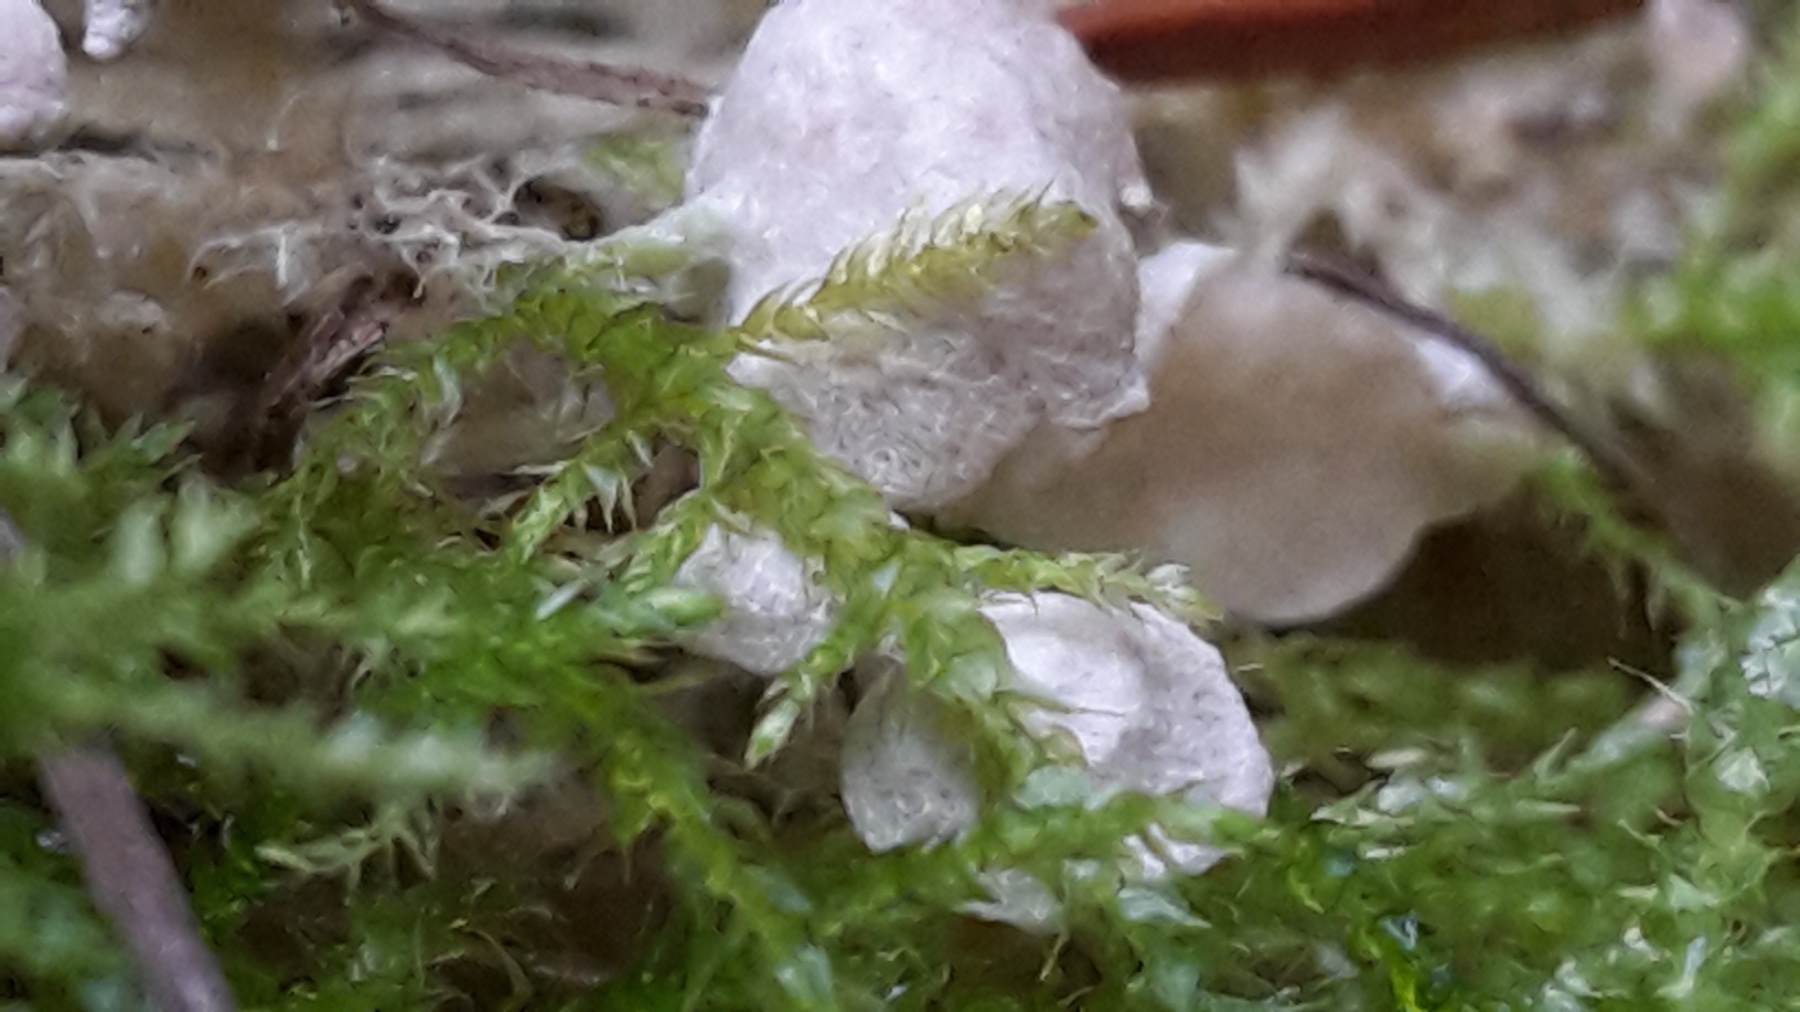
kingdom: Fungi
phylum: Basidiomycota
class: Agaricomycetes
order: Agaricales
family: Hygrophoraceae
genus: Arrhenia
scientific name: Arrhenia retiruga
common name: lille fontænehat
